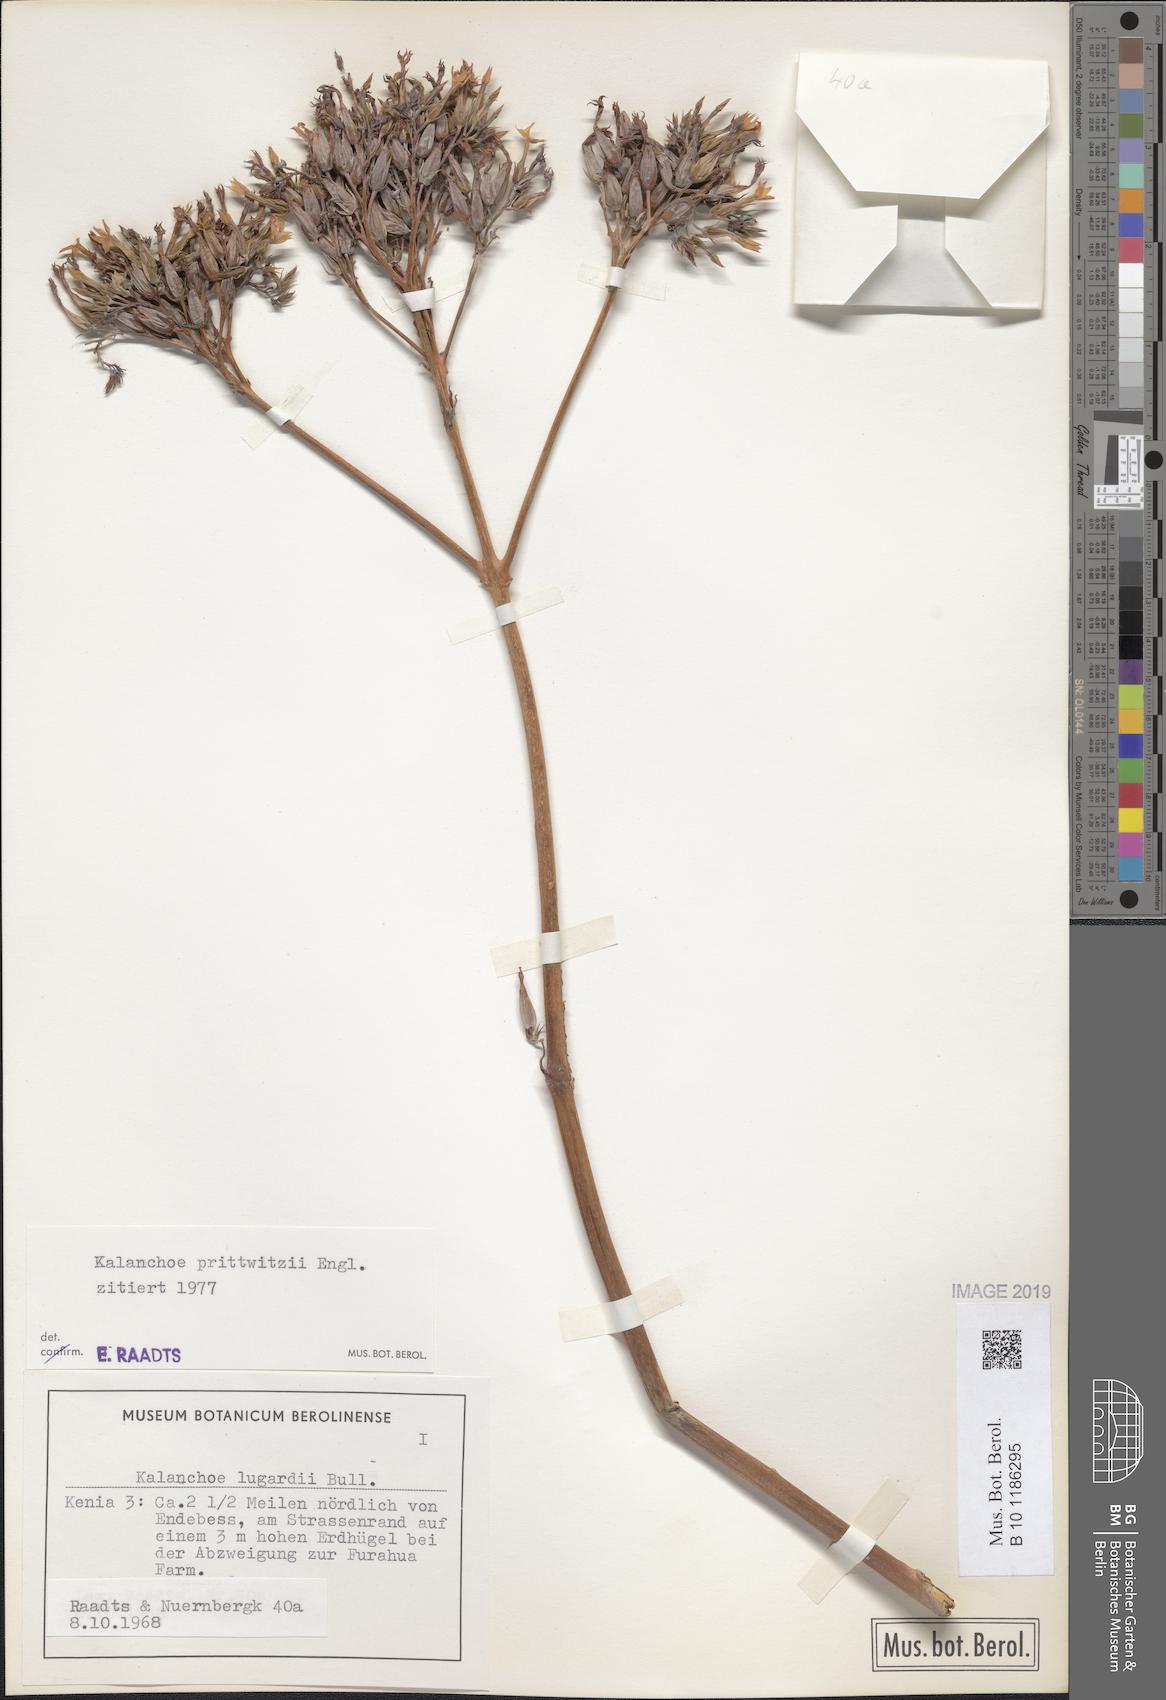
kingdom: Plantae
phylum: Tracheophyta
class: Magnoliopsida
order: Saxifragales
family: Crassulaceae
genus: Kalanchoe
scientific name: Kalanchoe prittwitzii
